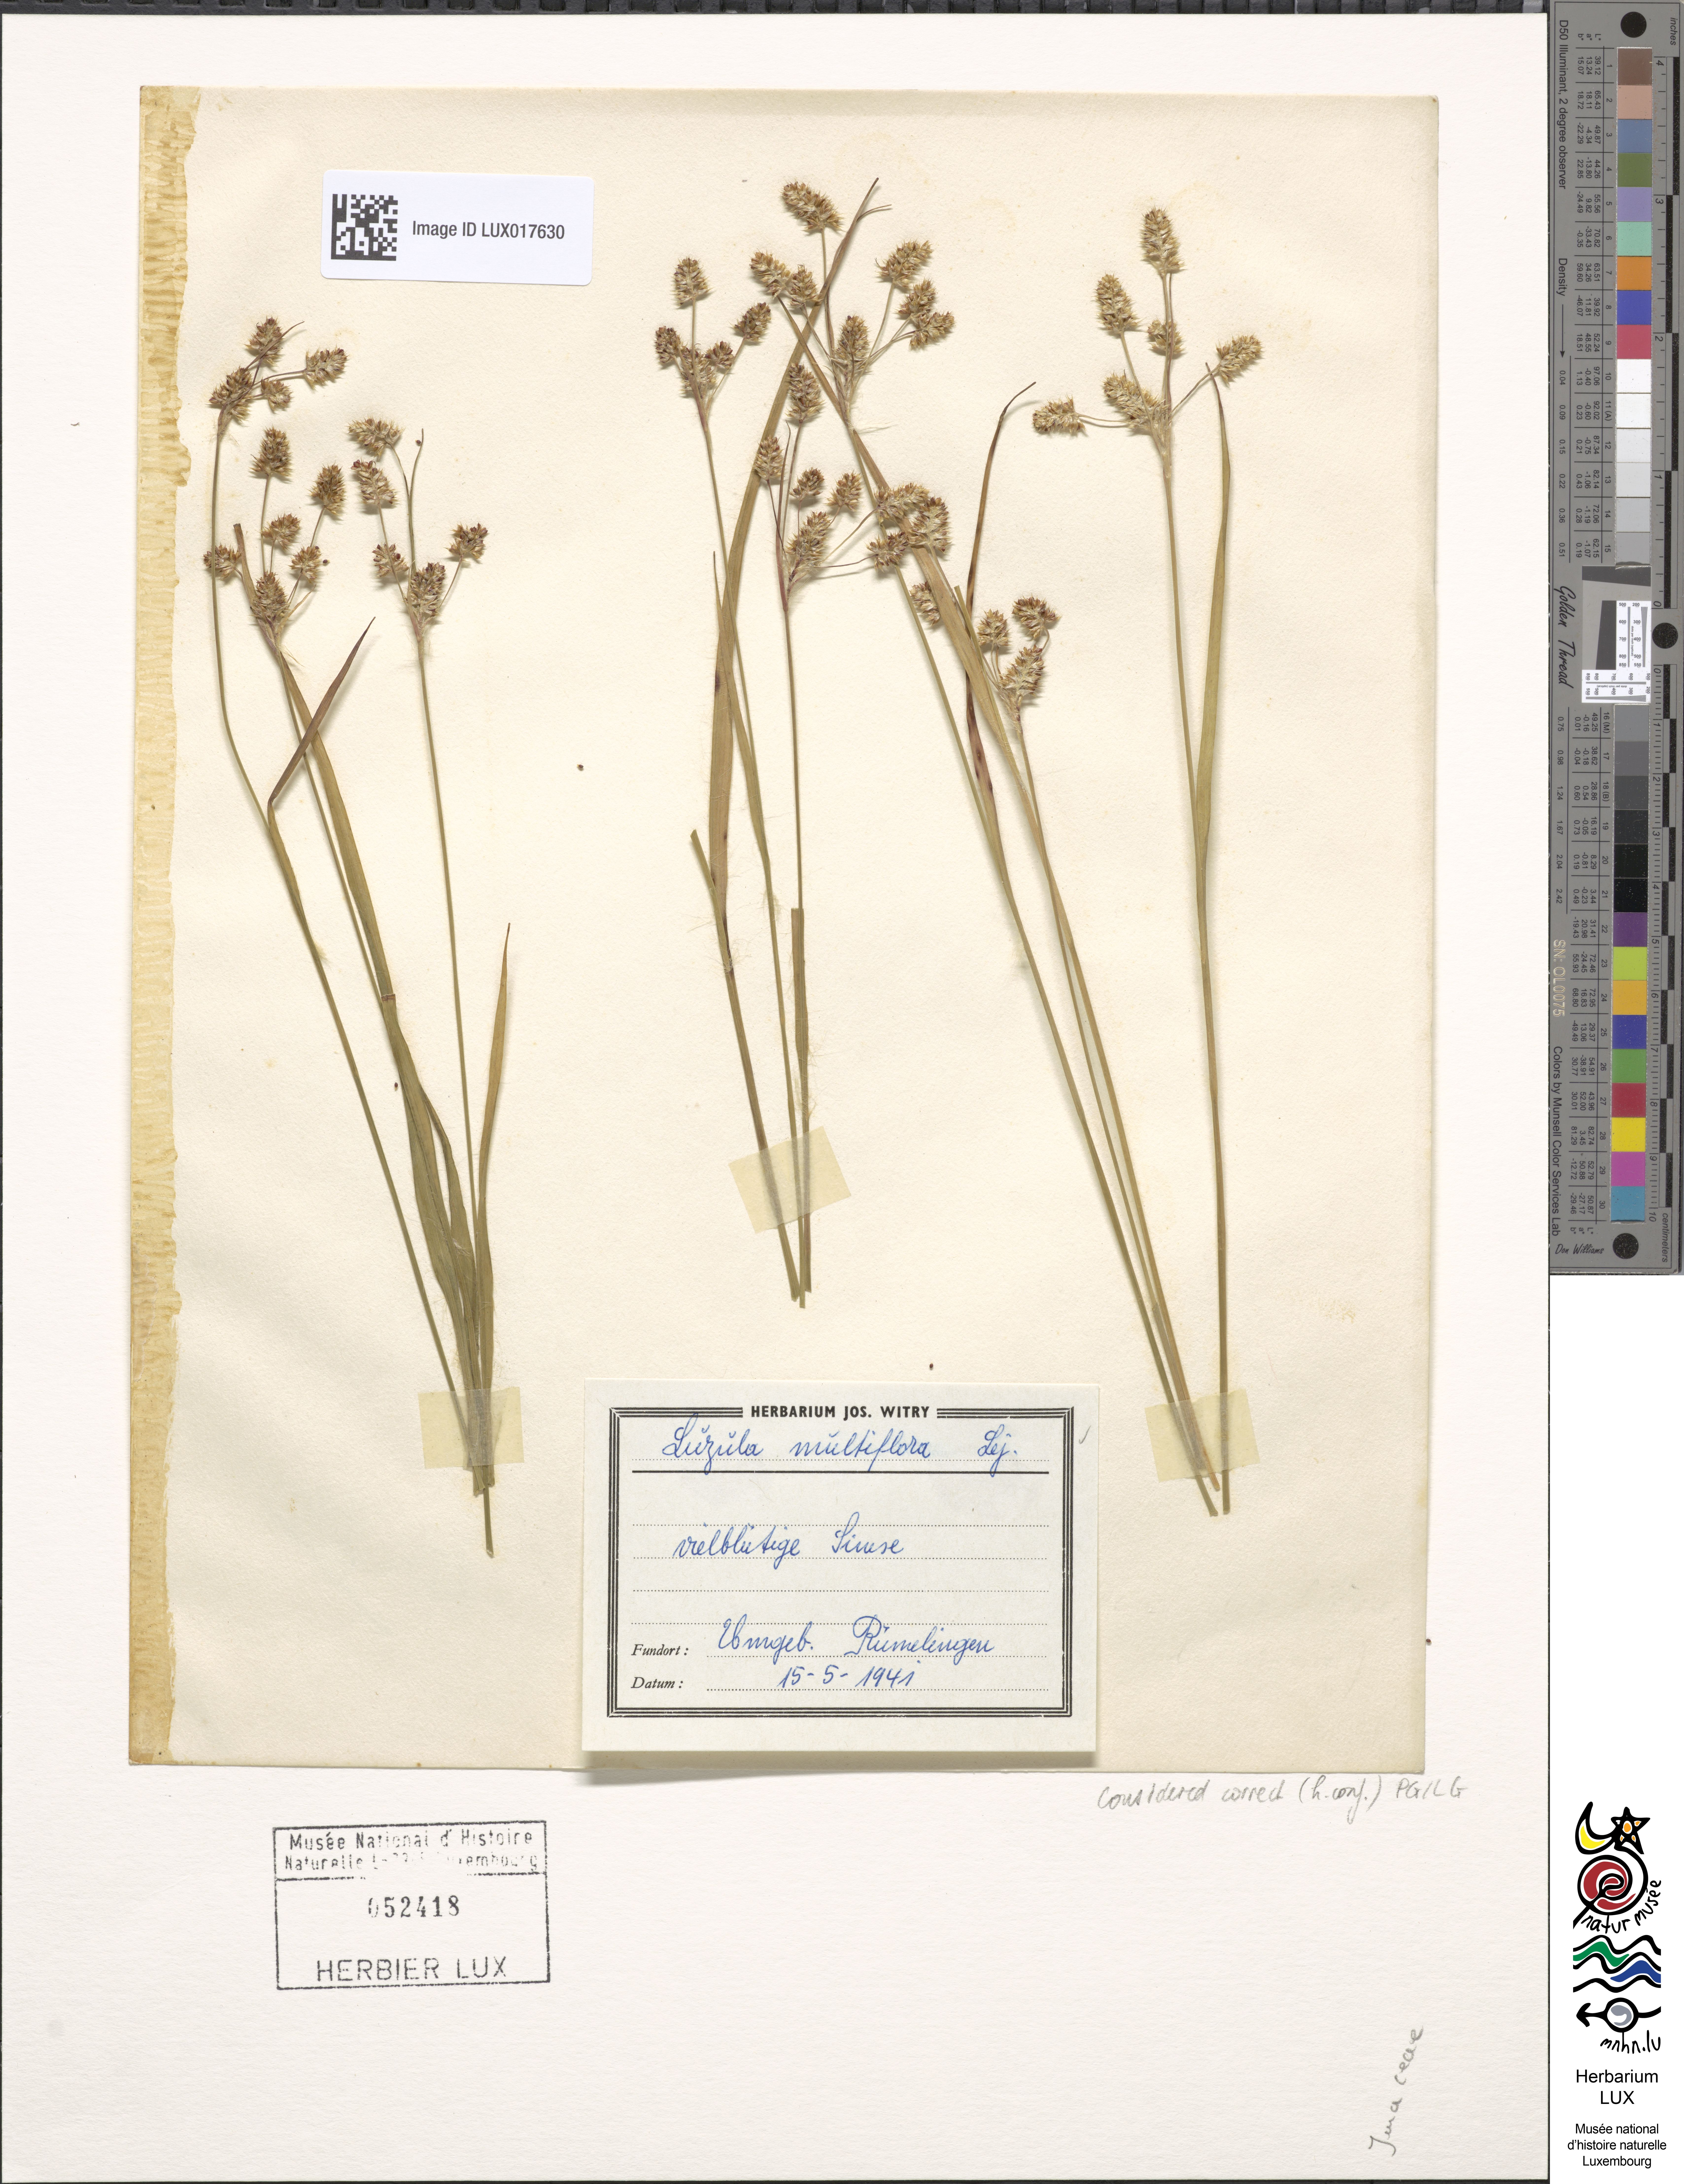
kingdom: Plantae
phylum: Tracheophyta
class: Liliopsida
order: Poales
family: Juncaceae
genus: Luzula
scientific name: Luzula multiflora
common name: Heath wood-rush
